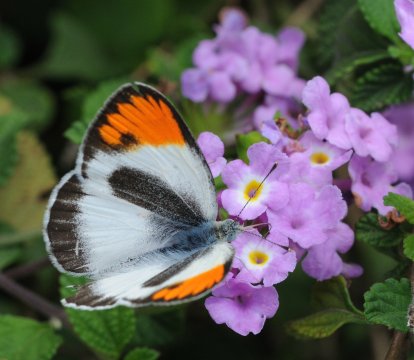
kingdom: Animalia
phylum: Arthropoda
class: Insecta
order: Lepidoptera
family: Pieridae
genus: Colotis
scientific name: Colotis evagore
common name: Desert Orange Tip
